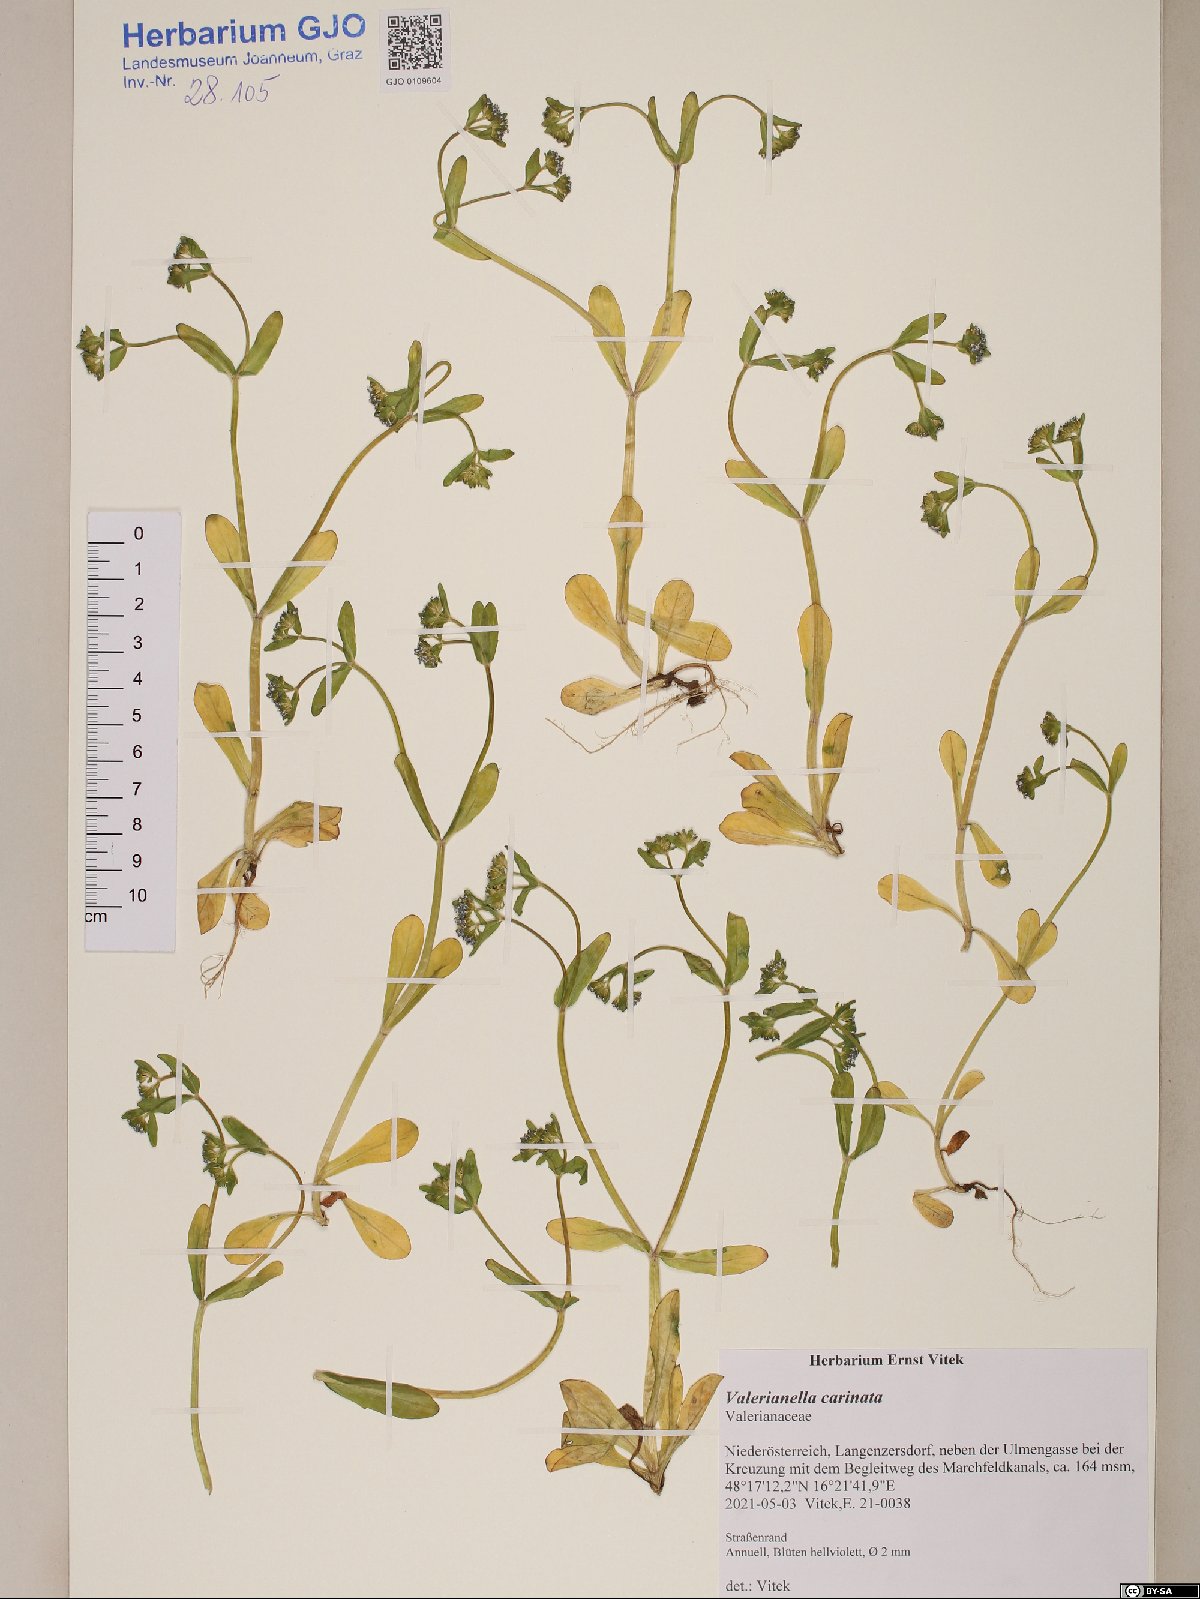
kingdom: Plantae
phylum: Tracheophyta
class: Magnoliopsida
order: Dipsacales
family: Caprifoliaceae
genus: Valerianella
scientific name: Valerianella carinata
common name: Keeled-fruited cornsalad
